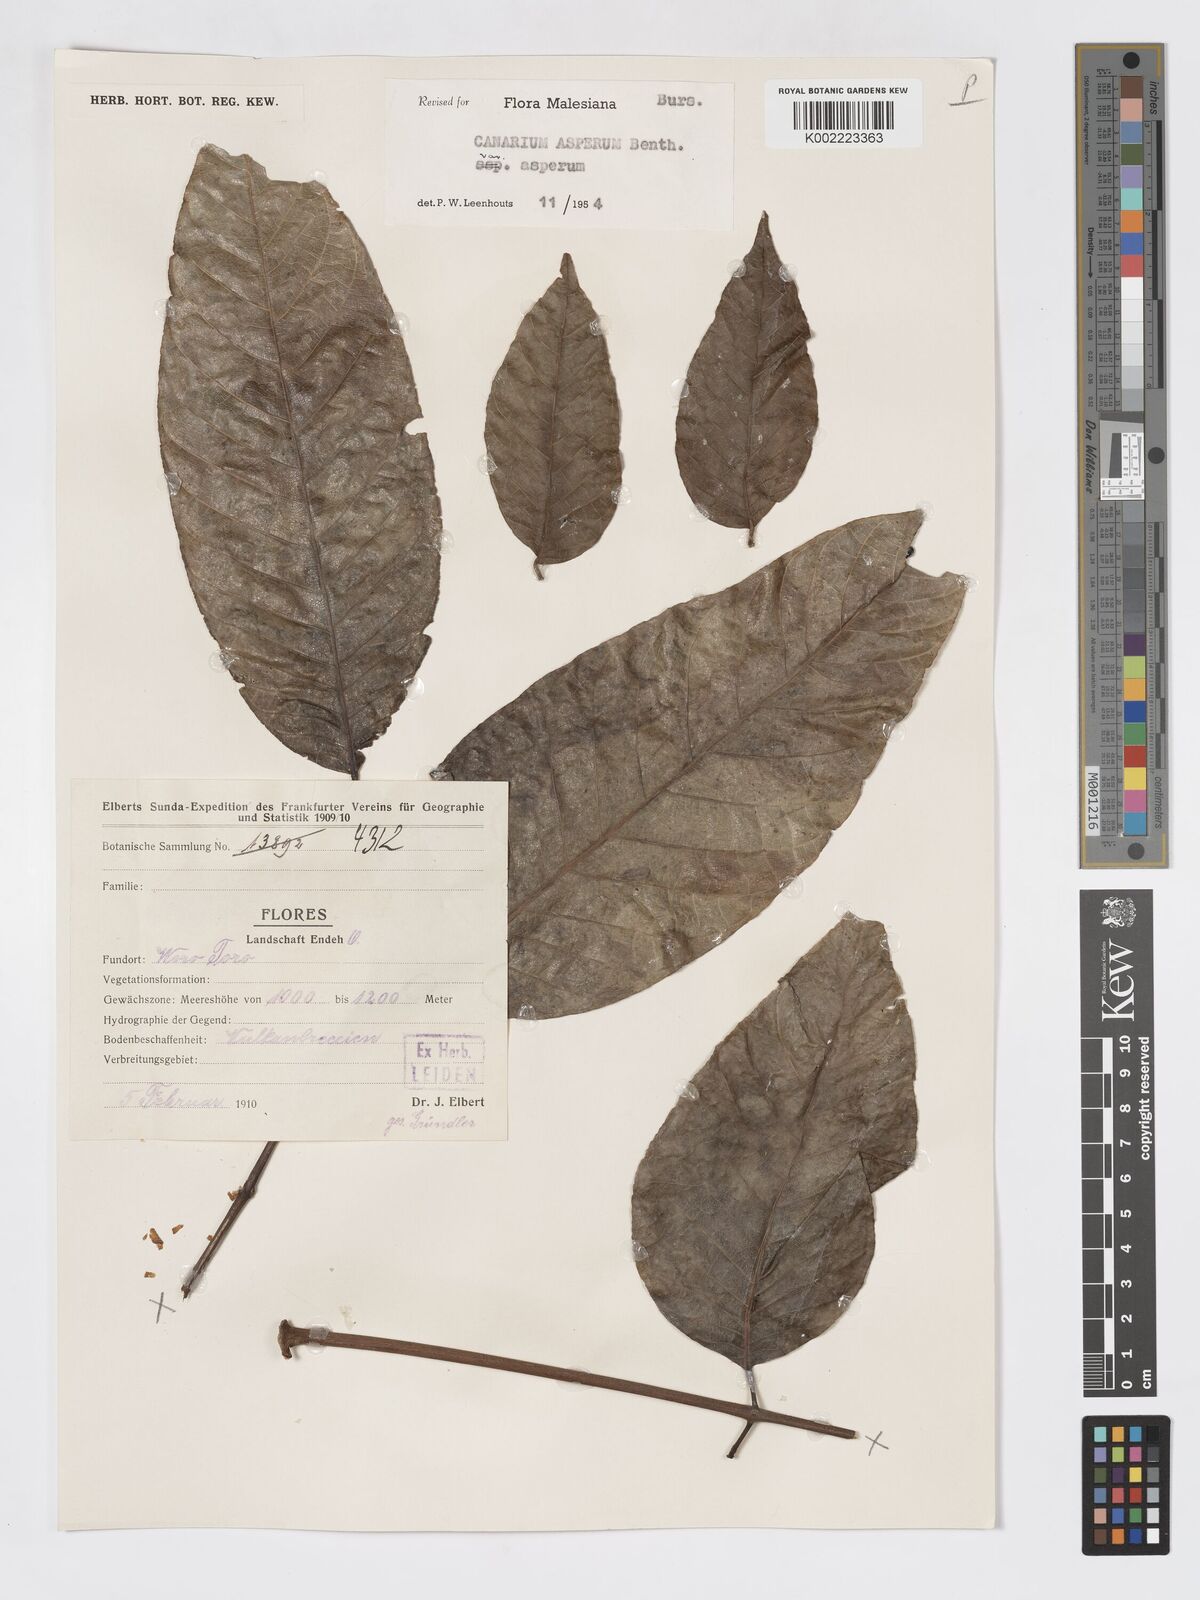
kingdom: Plantae
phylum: Tracheophyta
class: Magnoliopsida
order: Sapindales
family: Burseraceae
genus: Canarium
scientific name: Canarium asperum
